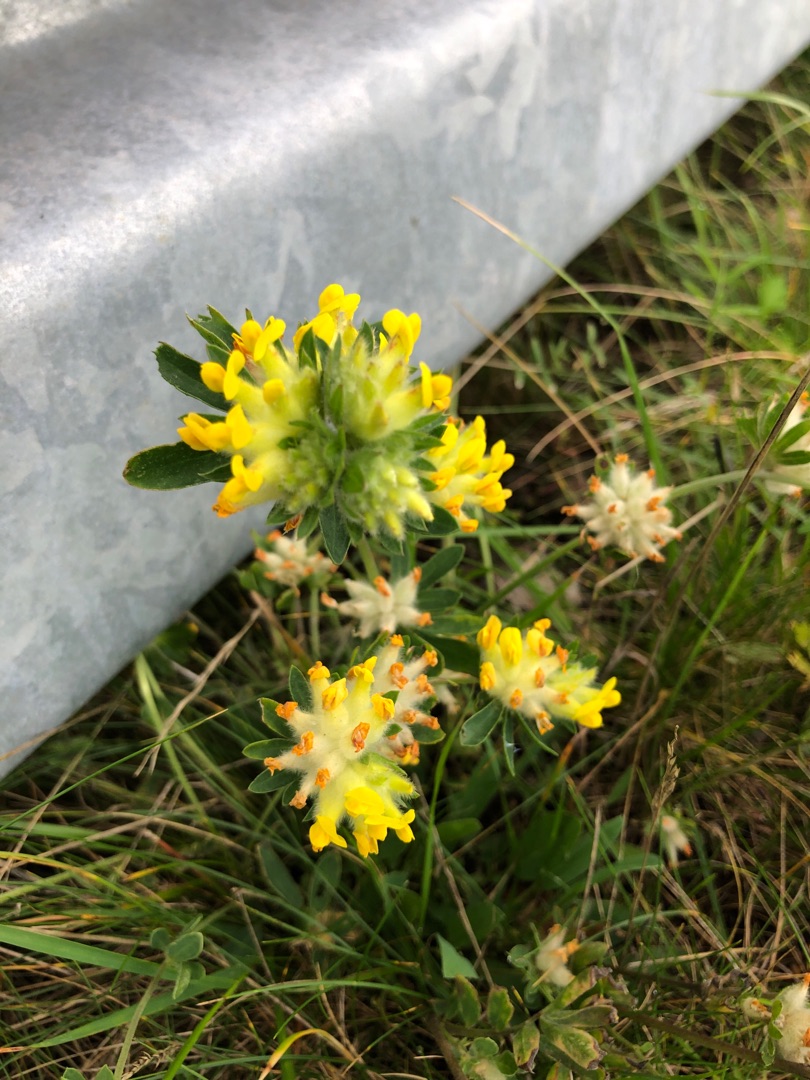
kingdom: Plantae
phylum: Tracheophyta
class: Magnoliopsida
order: Fabales
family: Fabaceae
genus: Anthyllis
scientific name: Anthyllis vulneraria
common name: Rundbælg
